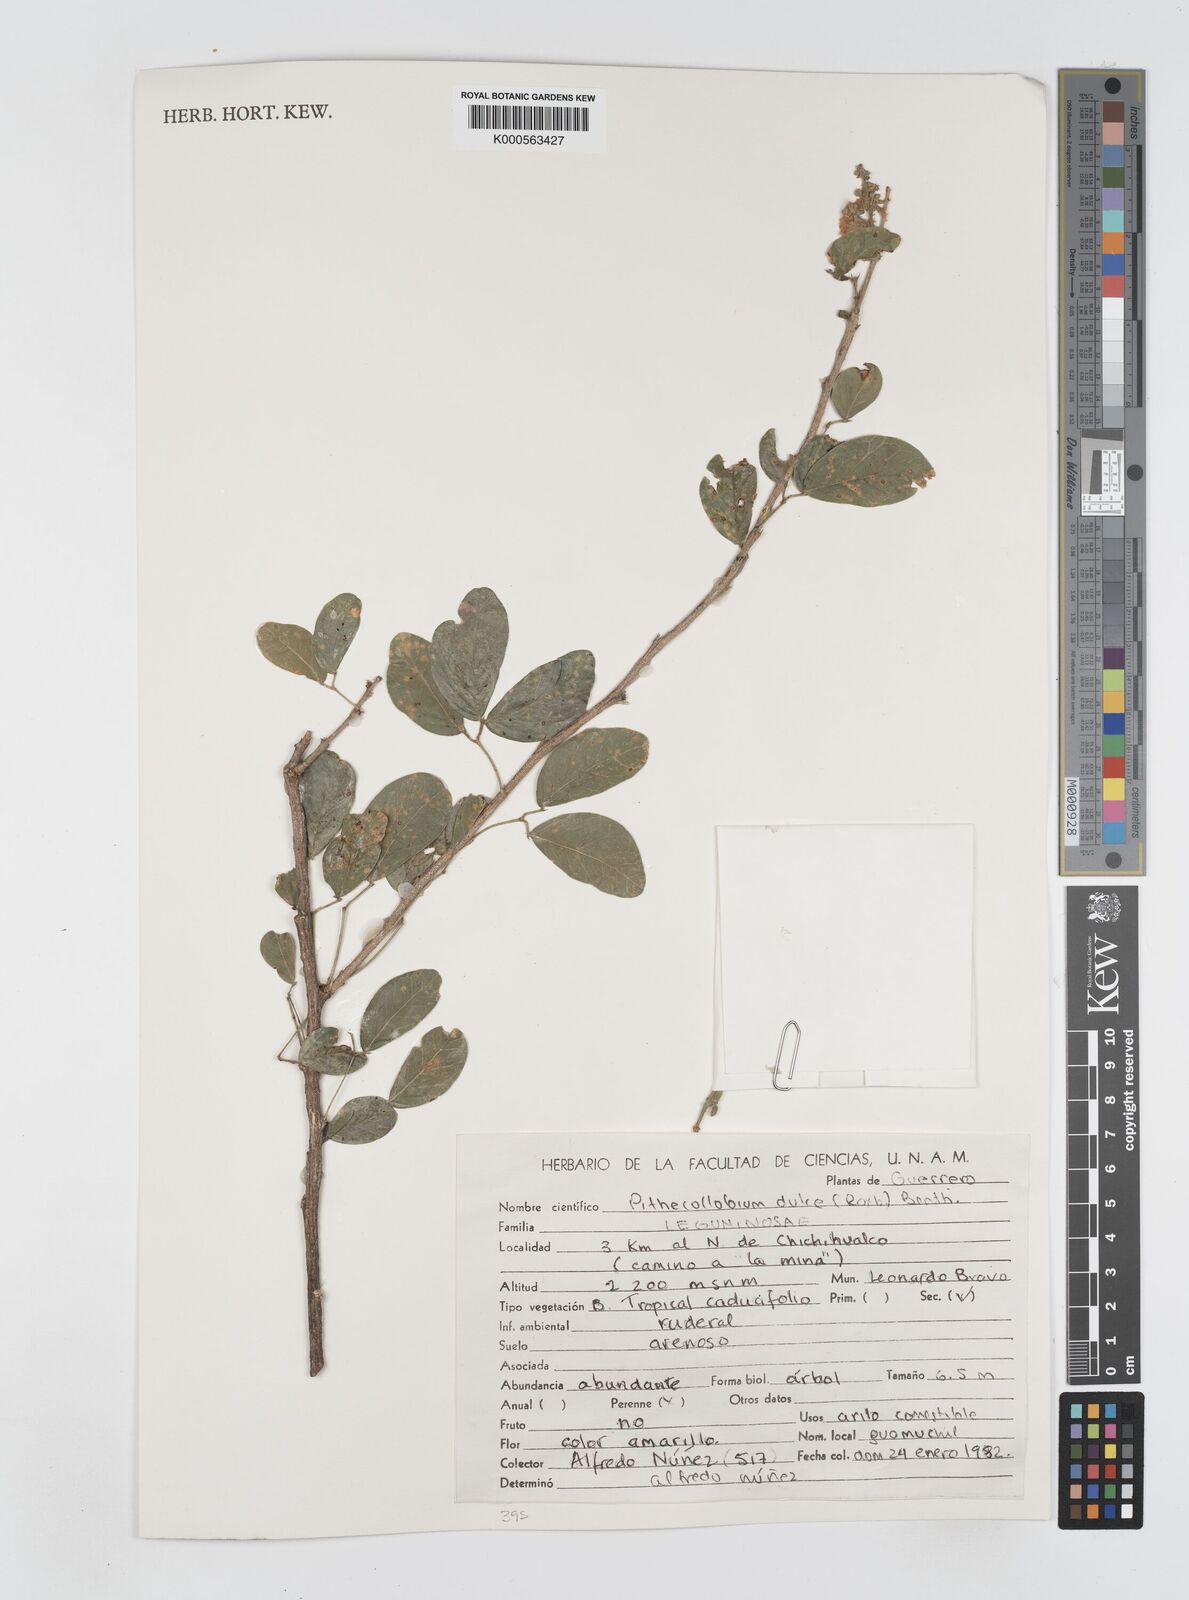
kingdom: Plantae
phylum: Tracheophyta
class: Magnoliopsida
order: Fabales
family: Fabaceae
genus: Pithecellobium
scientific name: Pithecellobium dulce
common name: Monkeypod
